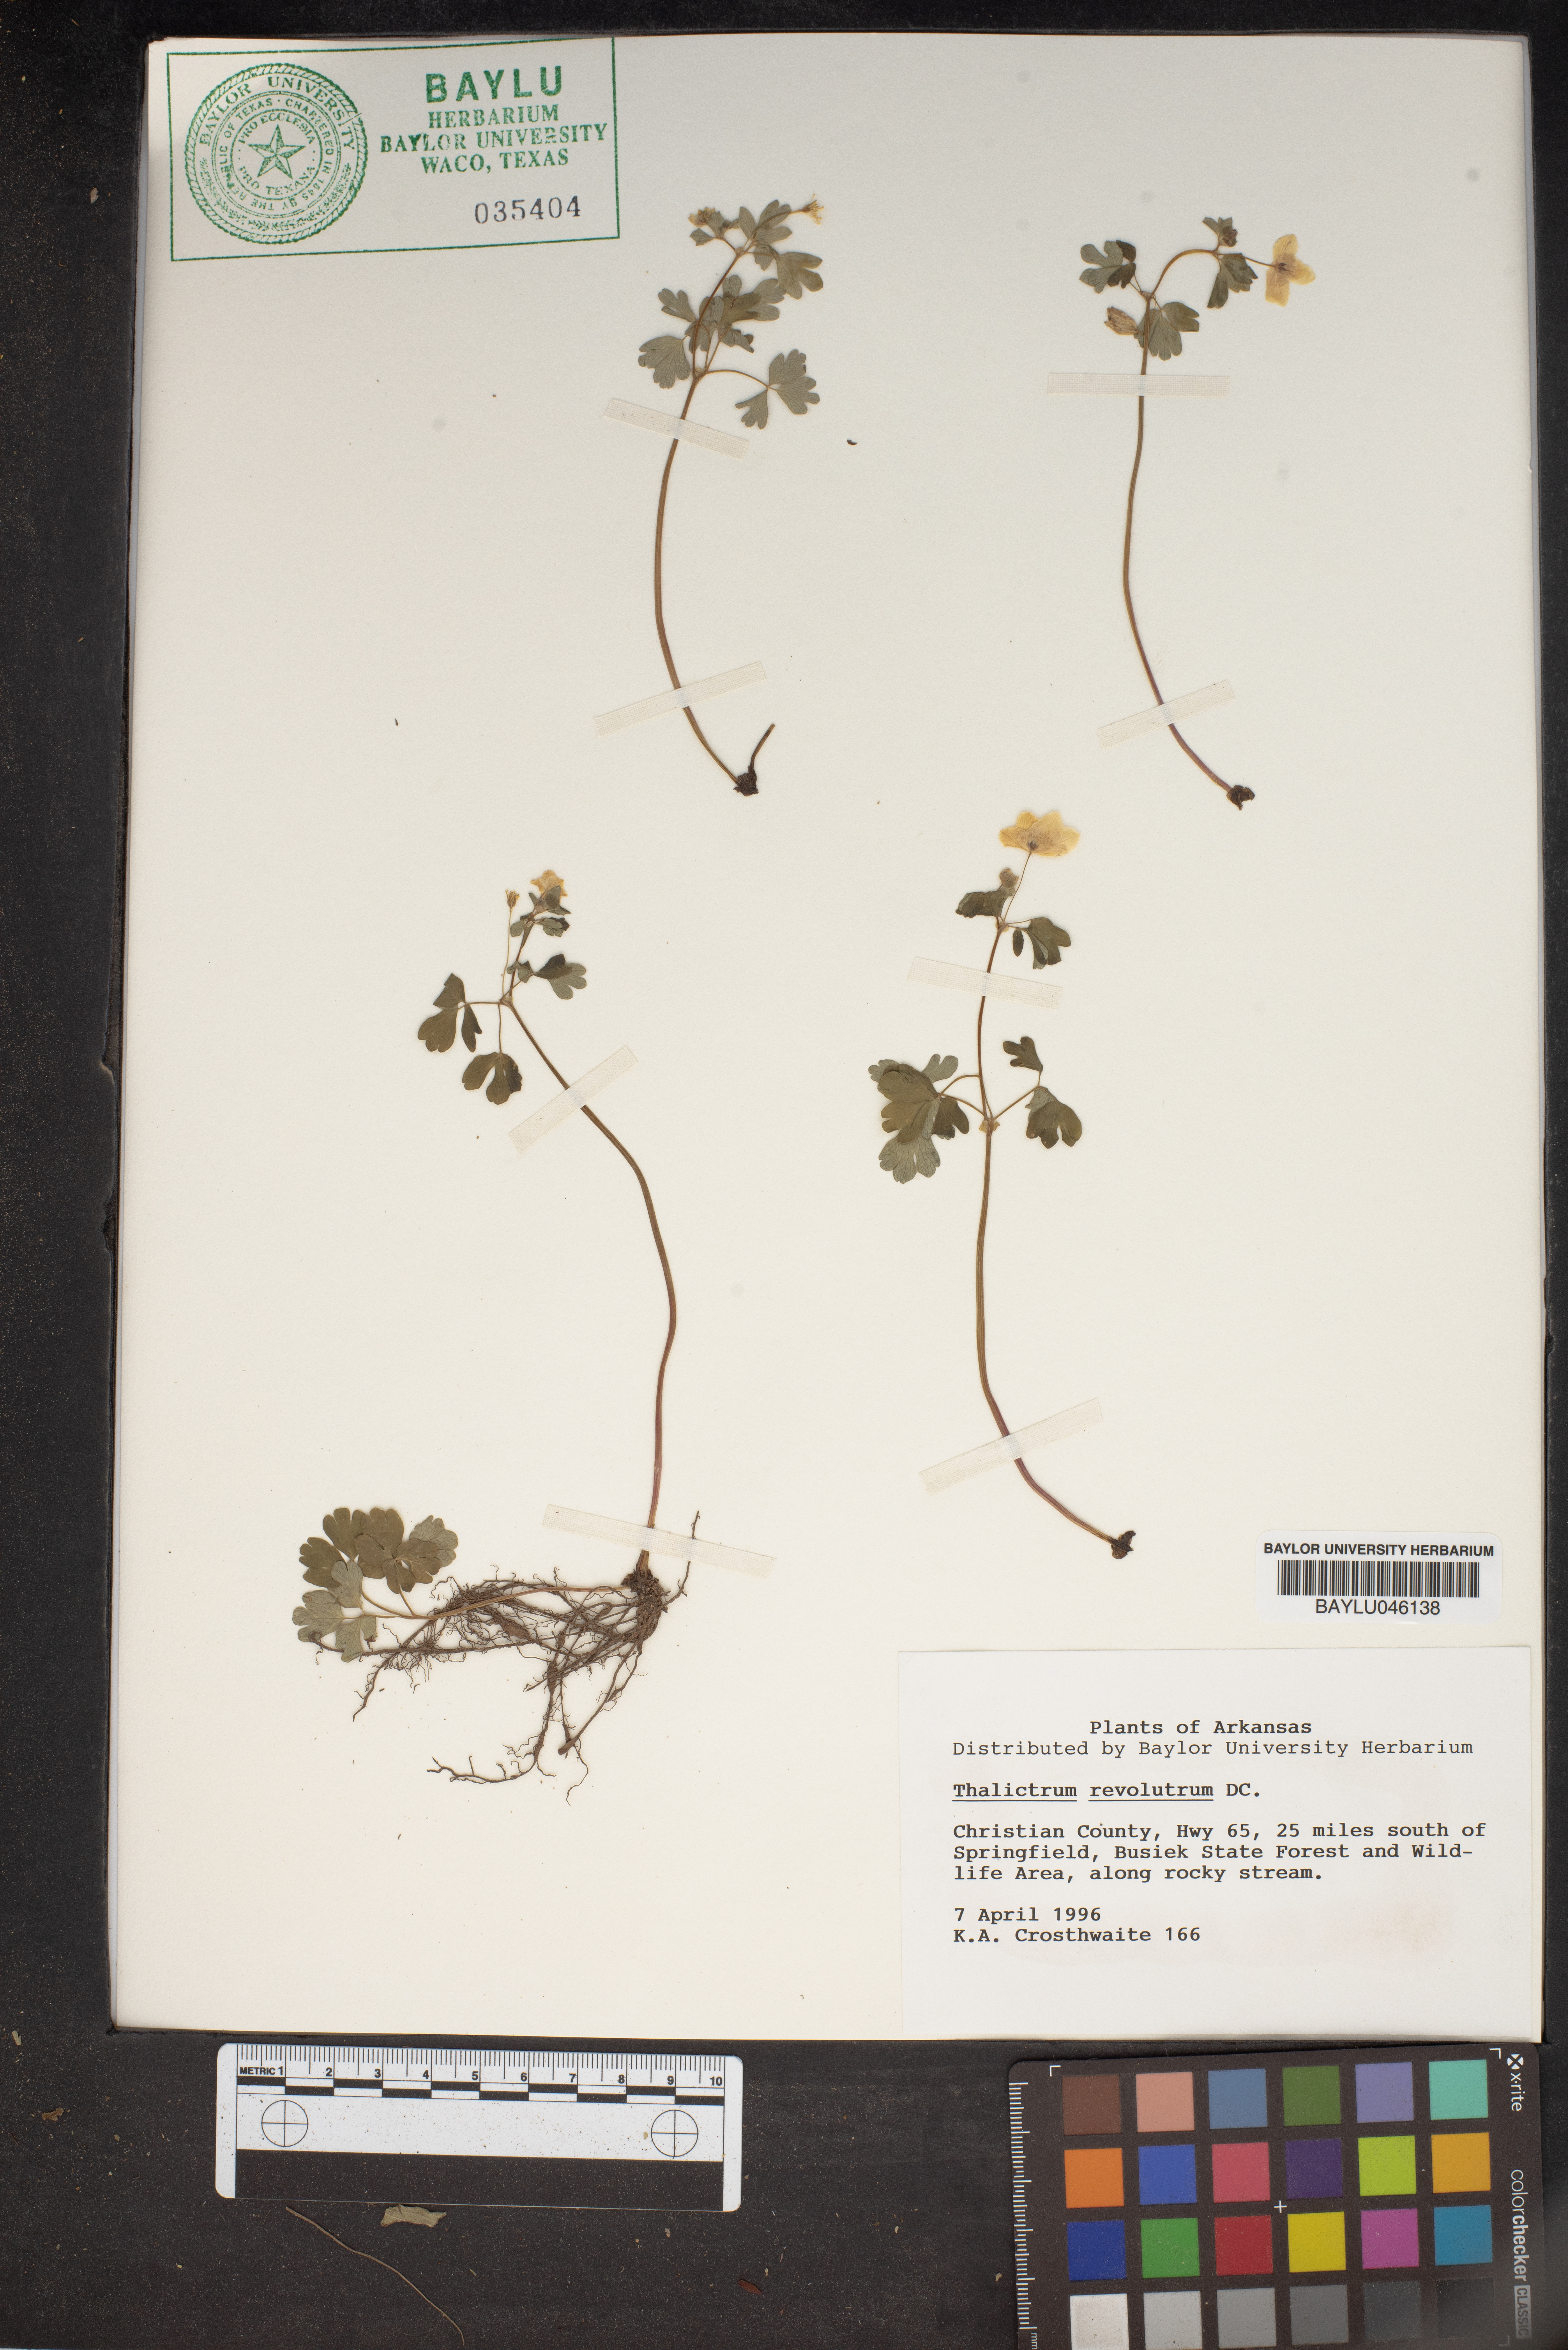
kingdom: Plantae
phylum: Tracheophyta
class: Magnoliopsida
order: Ranunculales
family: Ranunculaceae
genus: Thalictrum
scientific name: Thalictrum revolutum
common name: Waxy meadow-rue
